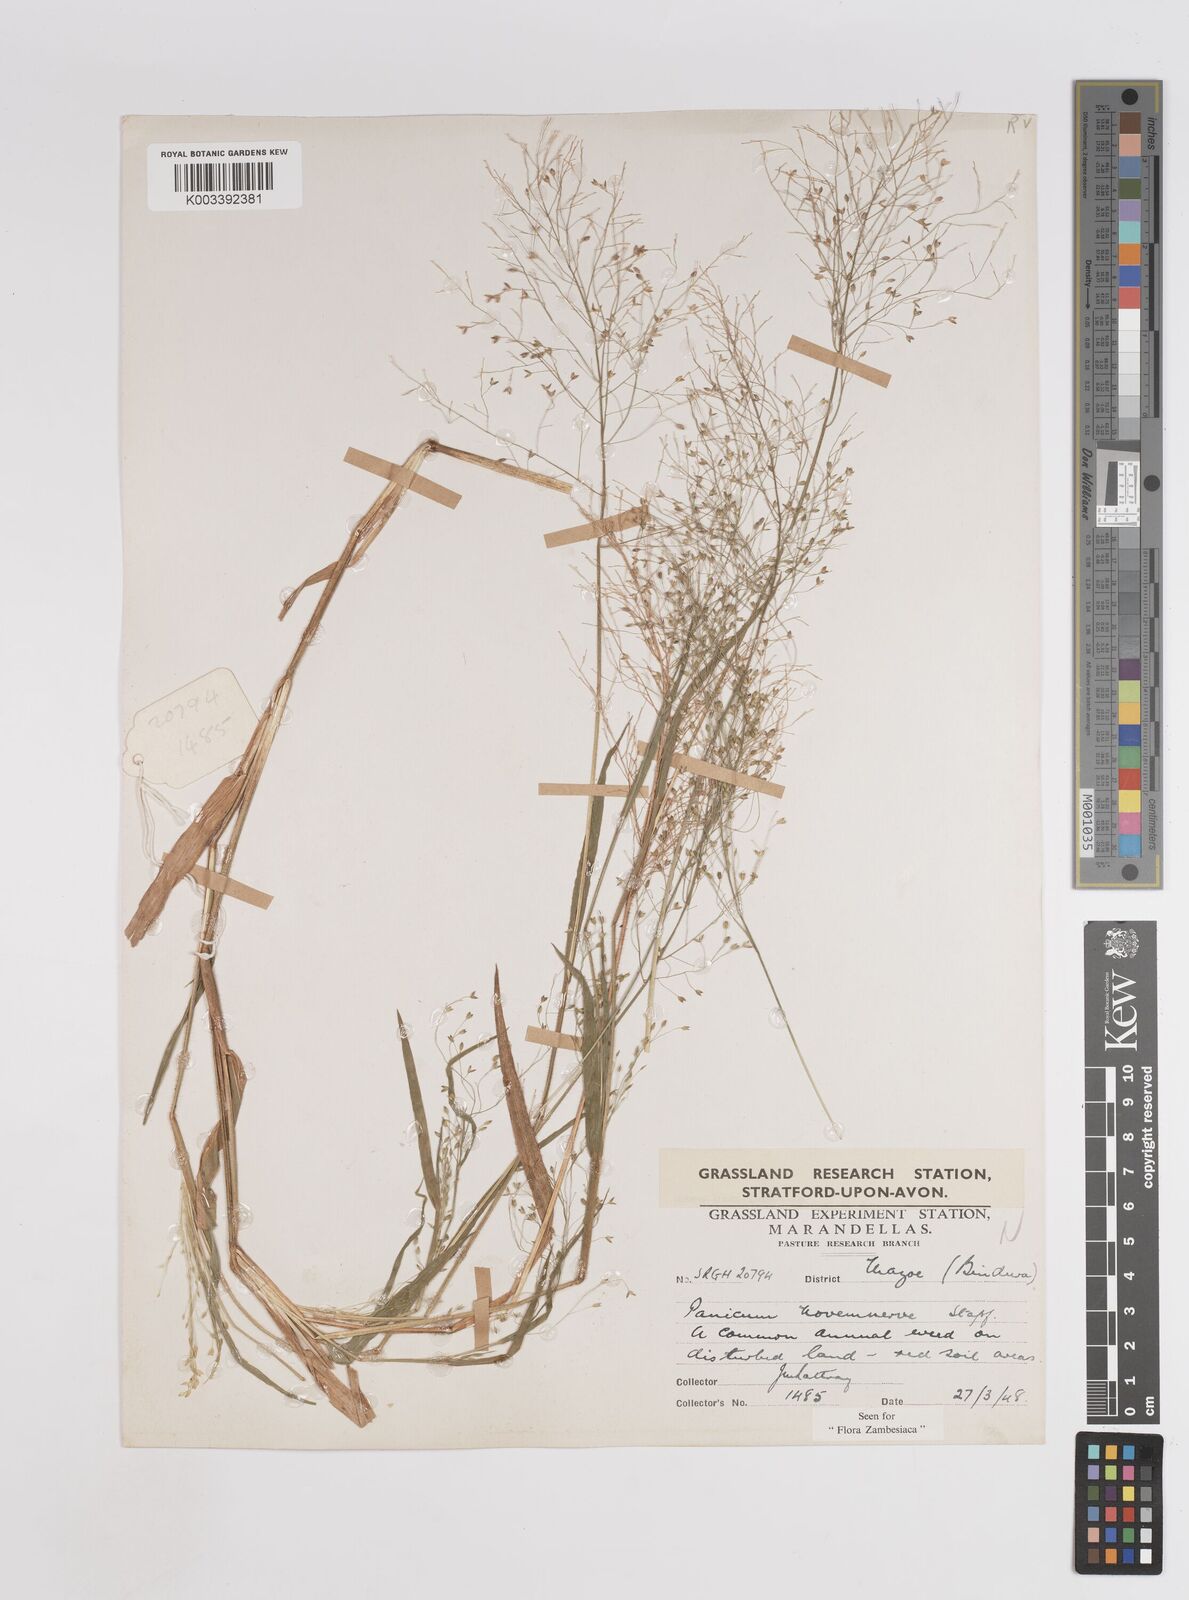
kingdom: Plantae
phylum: Tracheophyta
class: Liliopsida
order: Poales
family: Poaceae
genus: Panicum
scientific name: Panicum novemnerve
